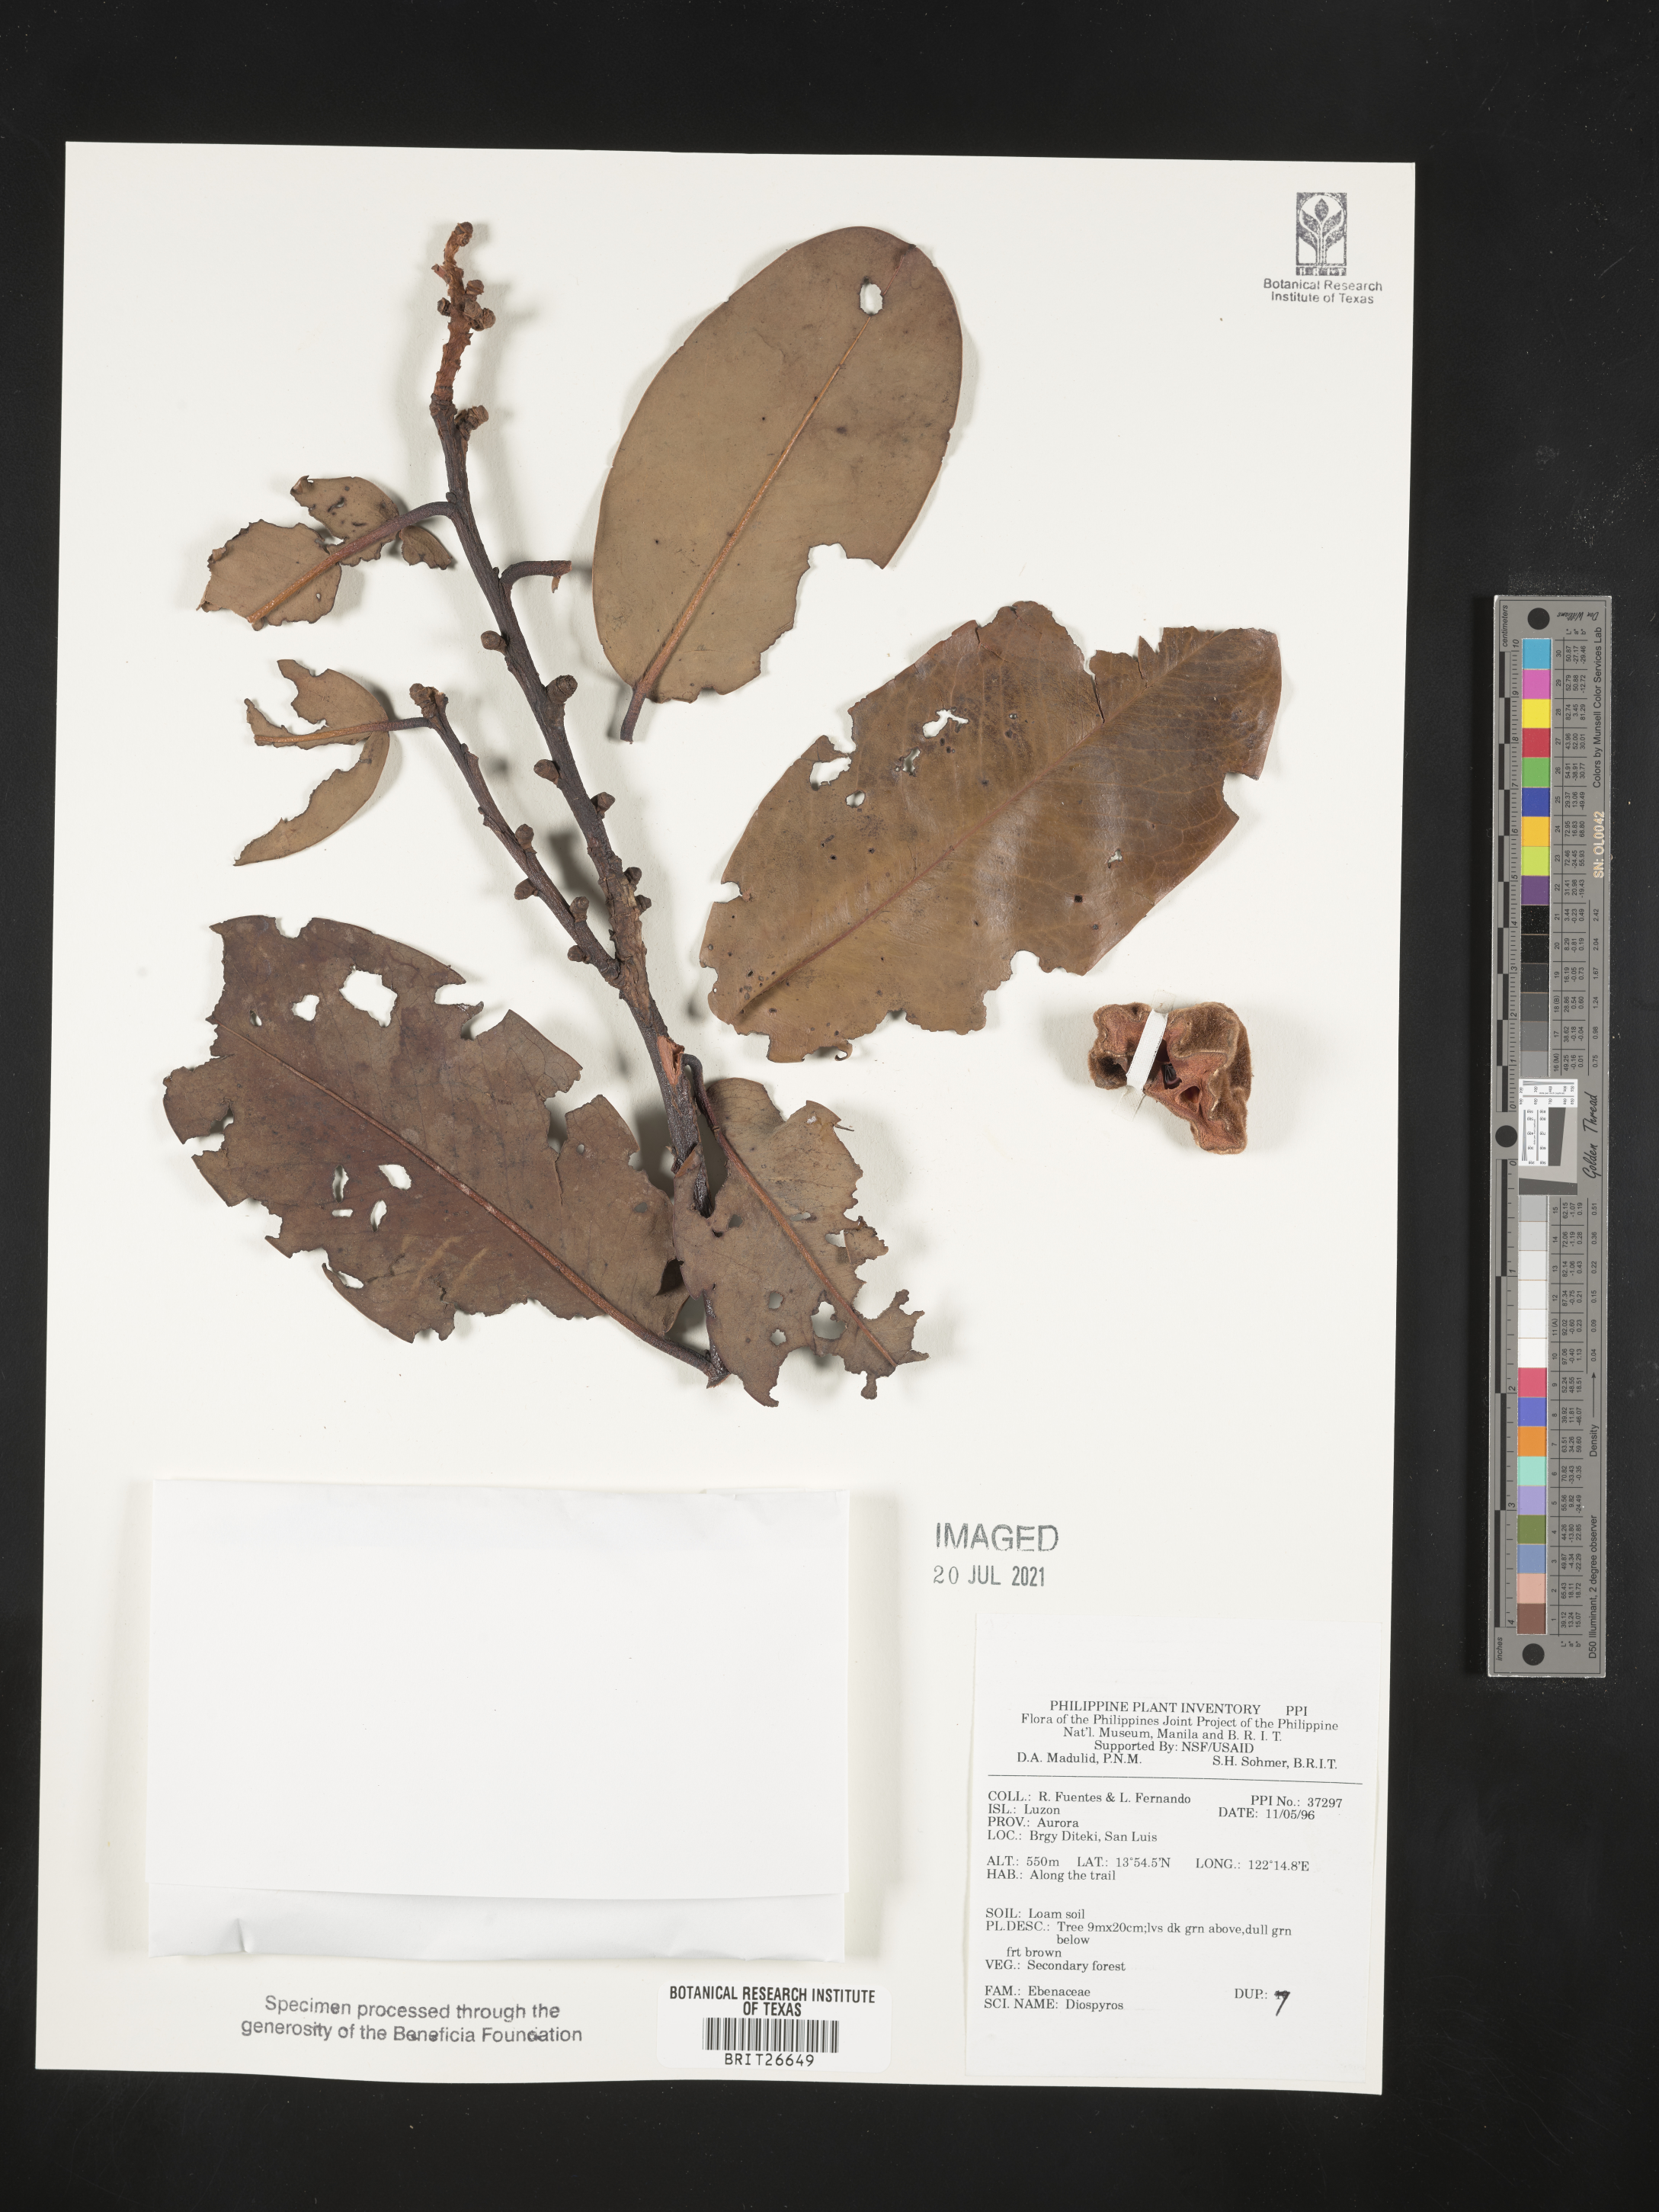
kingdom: Plantae
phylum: Tracheophyta
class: Magnoliopsida
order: Ericales
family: Ebenaceae
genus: Diospyros
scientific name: Diospyros
